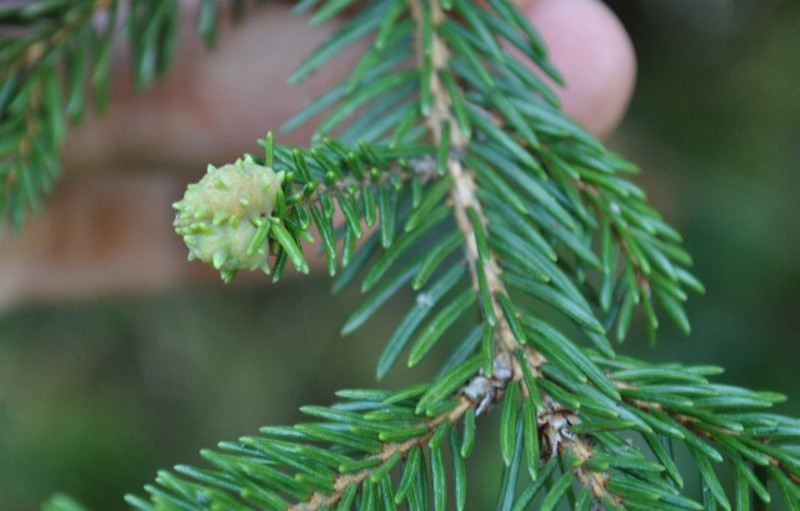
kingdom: Animalia
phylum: Arthropoda
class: Insecta
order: Hemiptera
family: Adelgidae
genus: Adelges
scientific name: Adelges viridis
